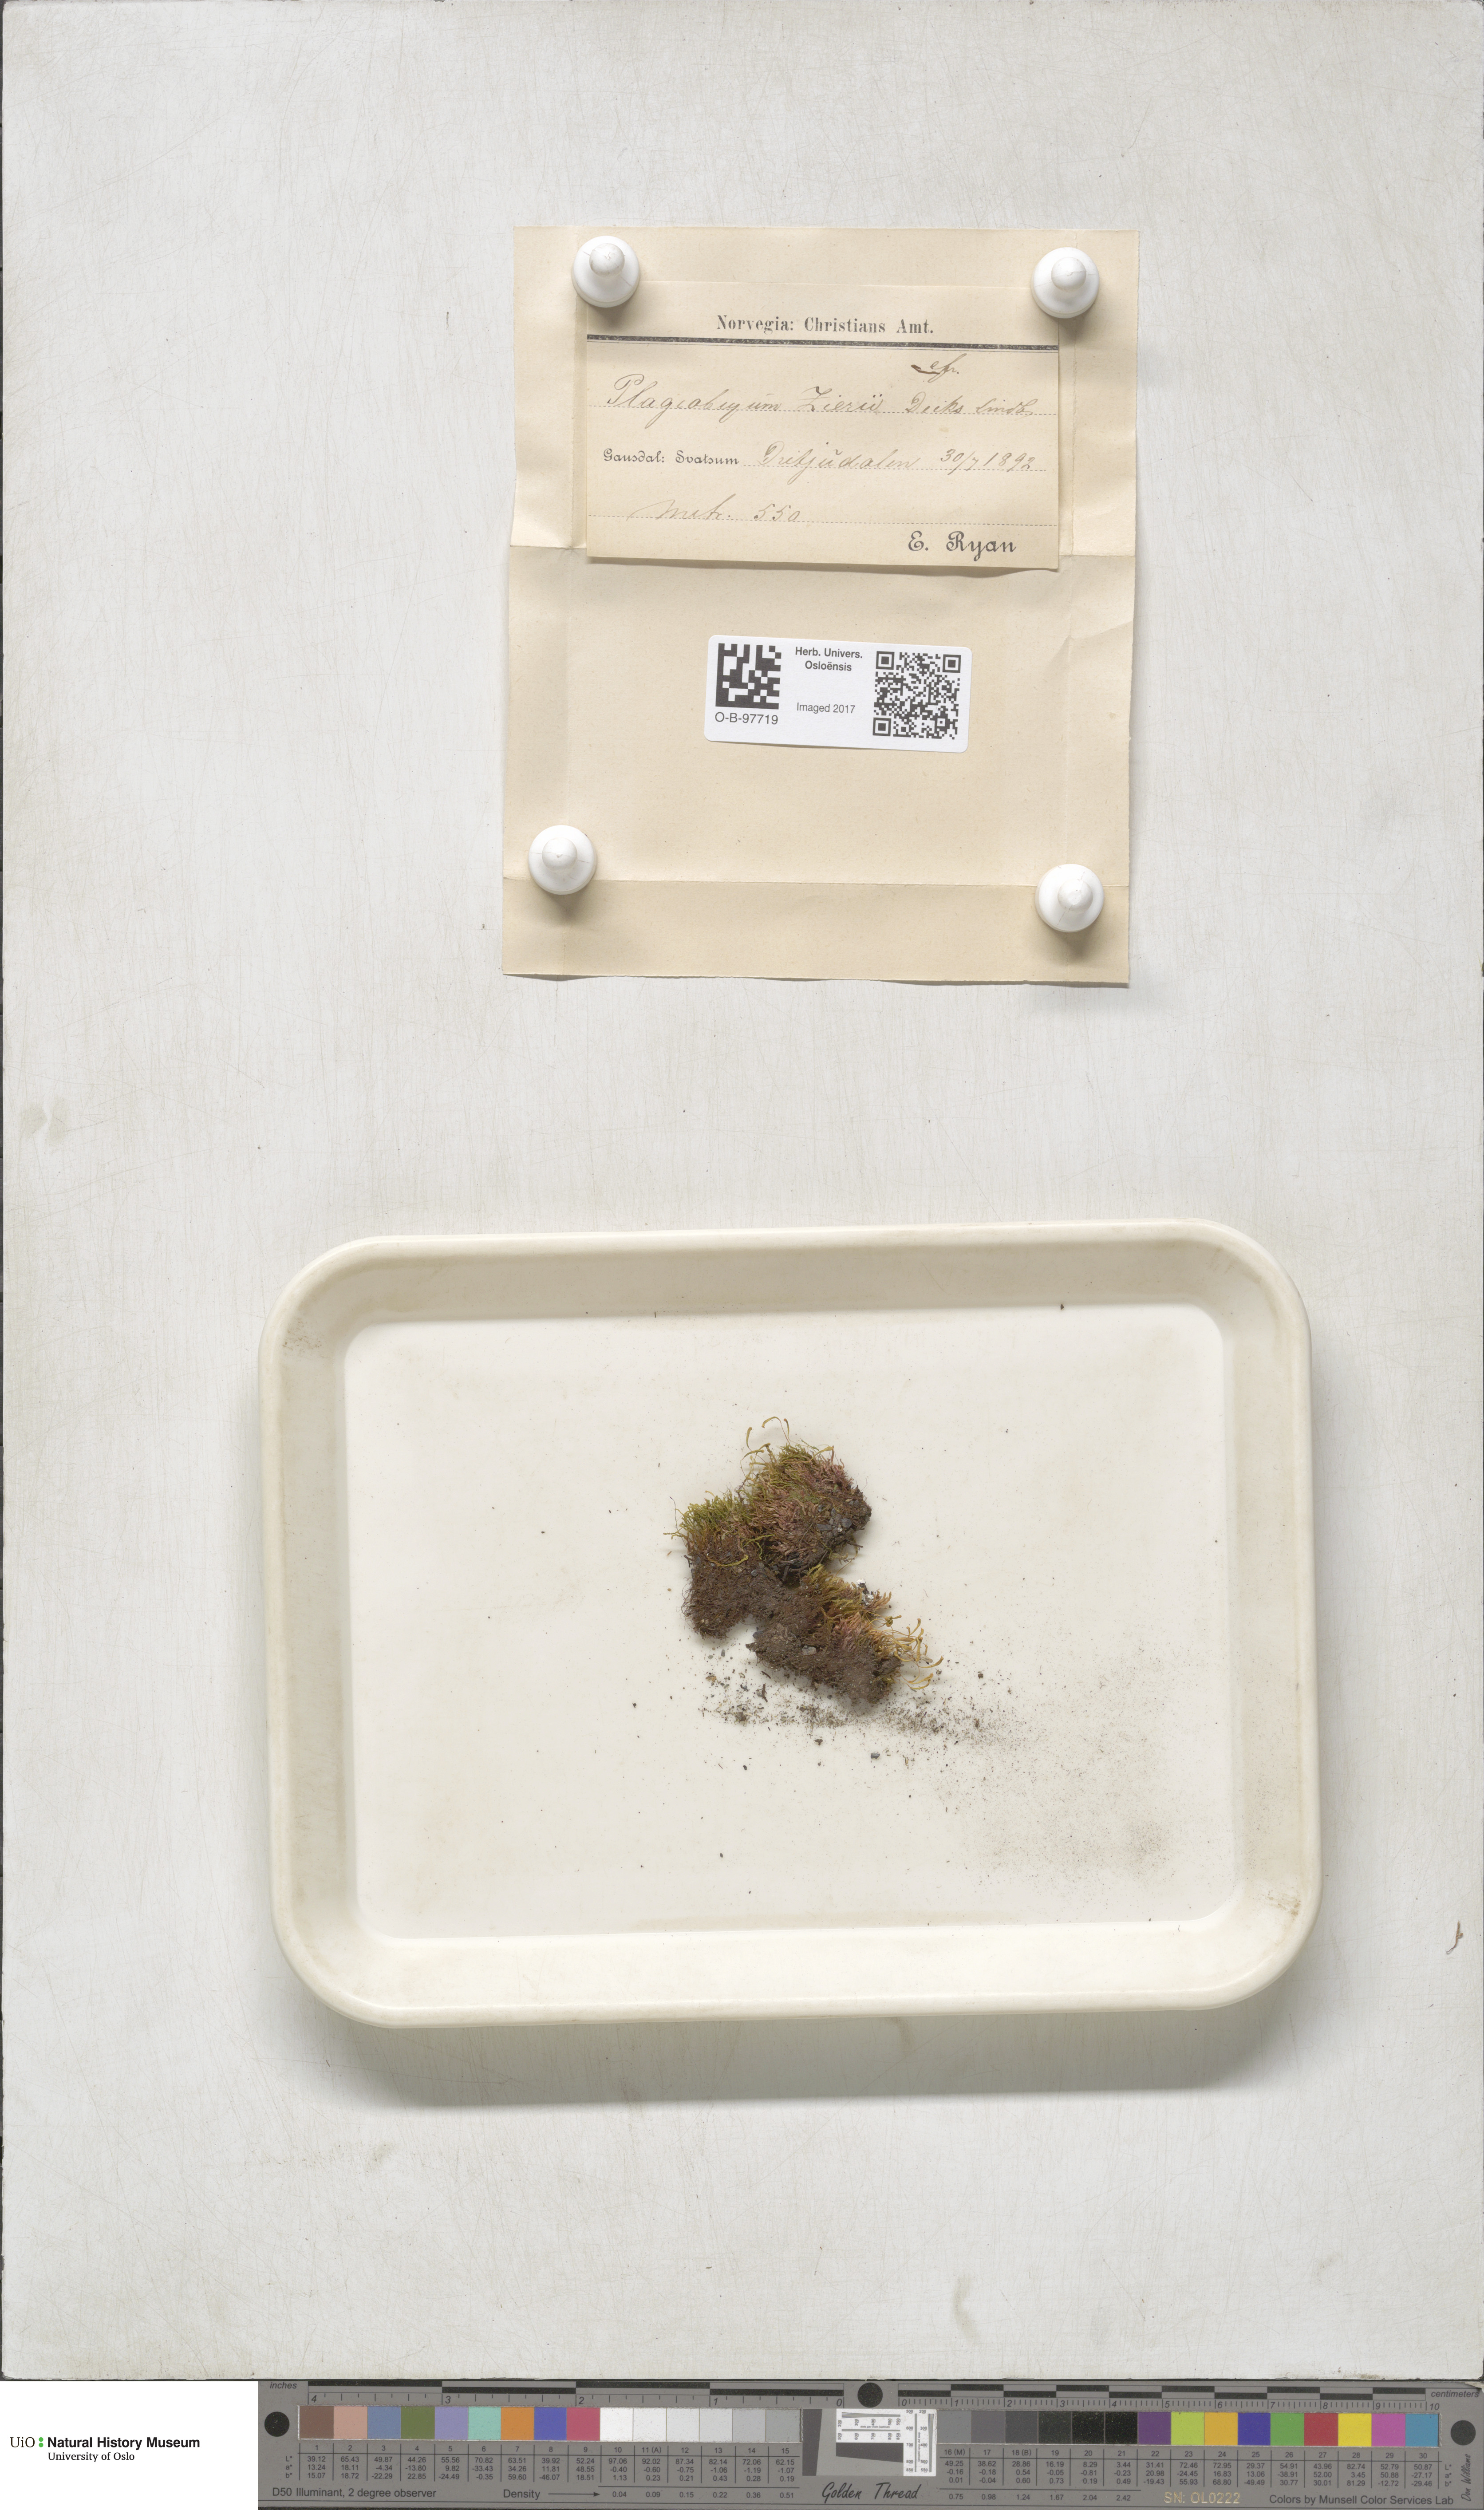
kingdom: Plantae
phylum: Bryophyta
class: Bryopsida
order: Bryales
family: Bryaceae
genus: Plagiobryum
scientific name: Plagiobryum zieri
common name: Zier's hump moss
